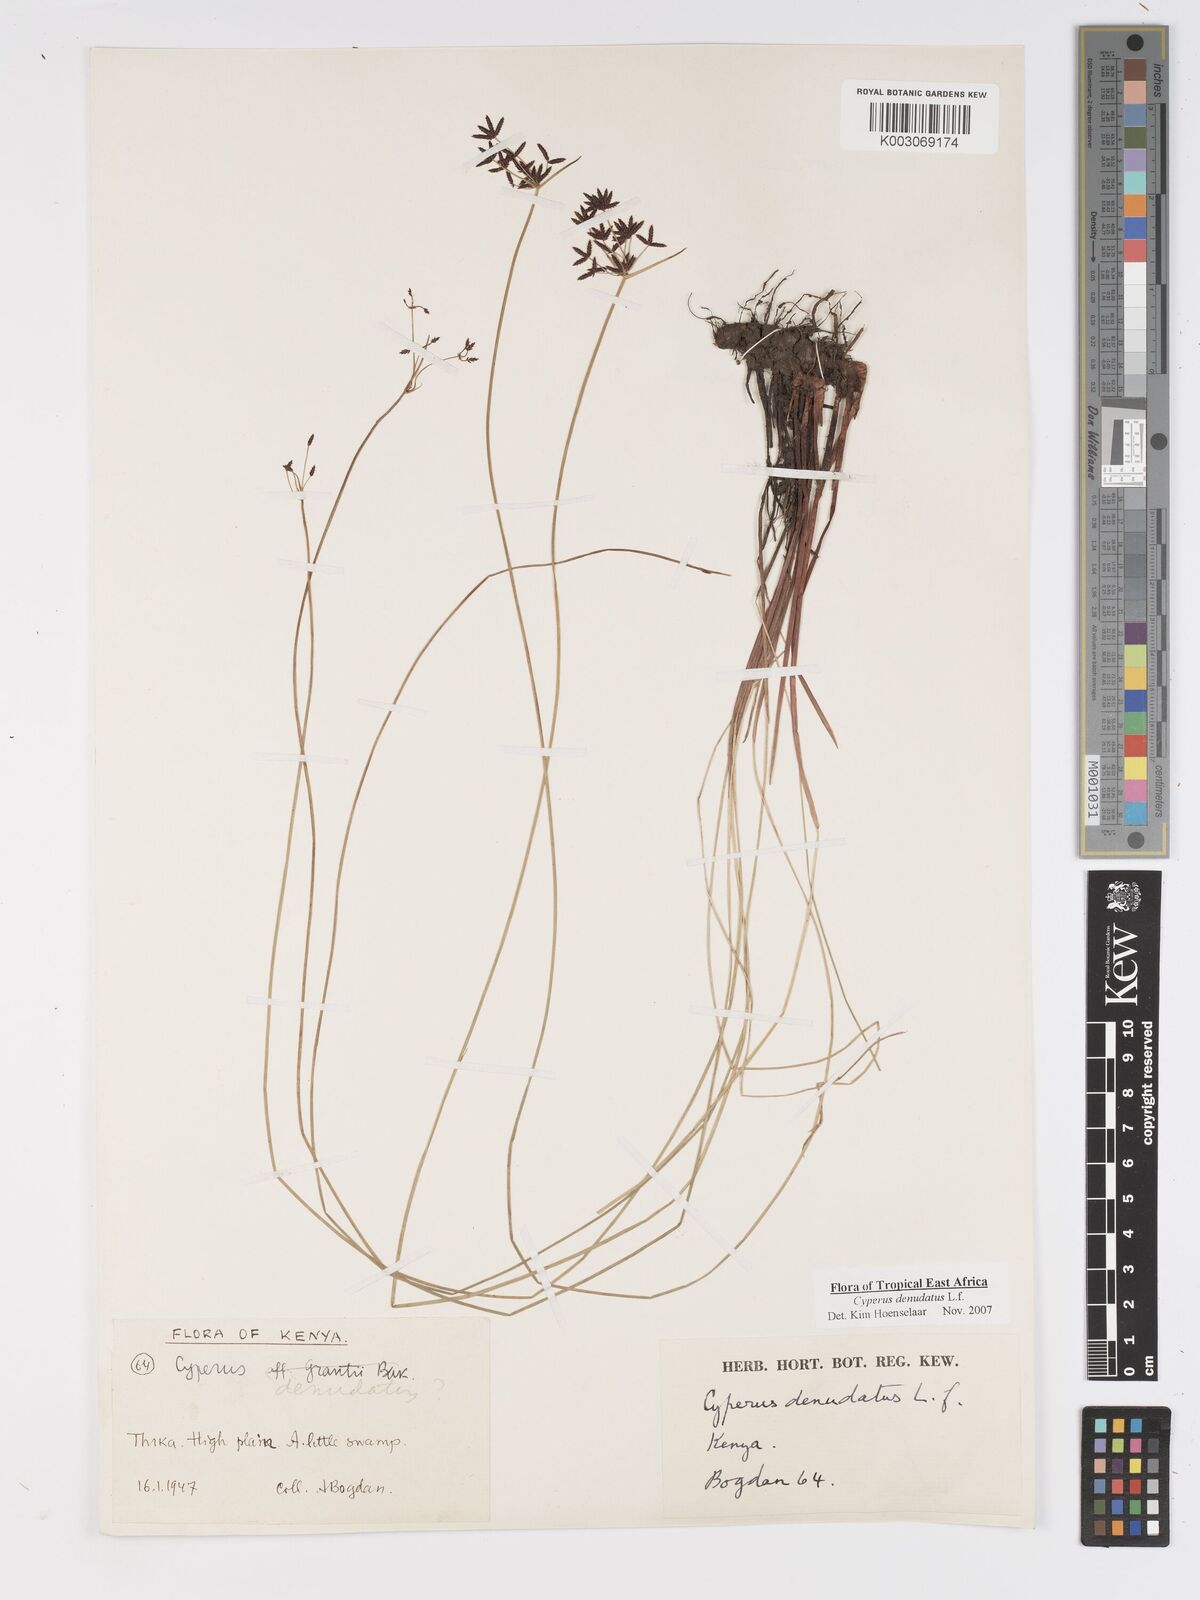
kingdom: Plantae
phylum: Tracheophyta
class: Liliopsida
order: Poales
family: Cyperaceae
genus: Cyperus
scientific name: Cyperus platycaulis
